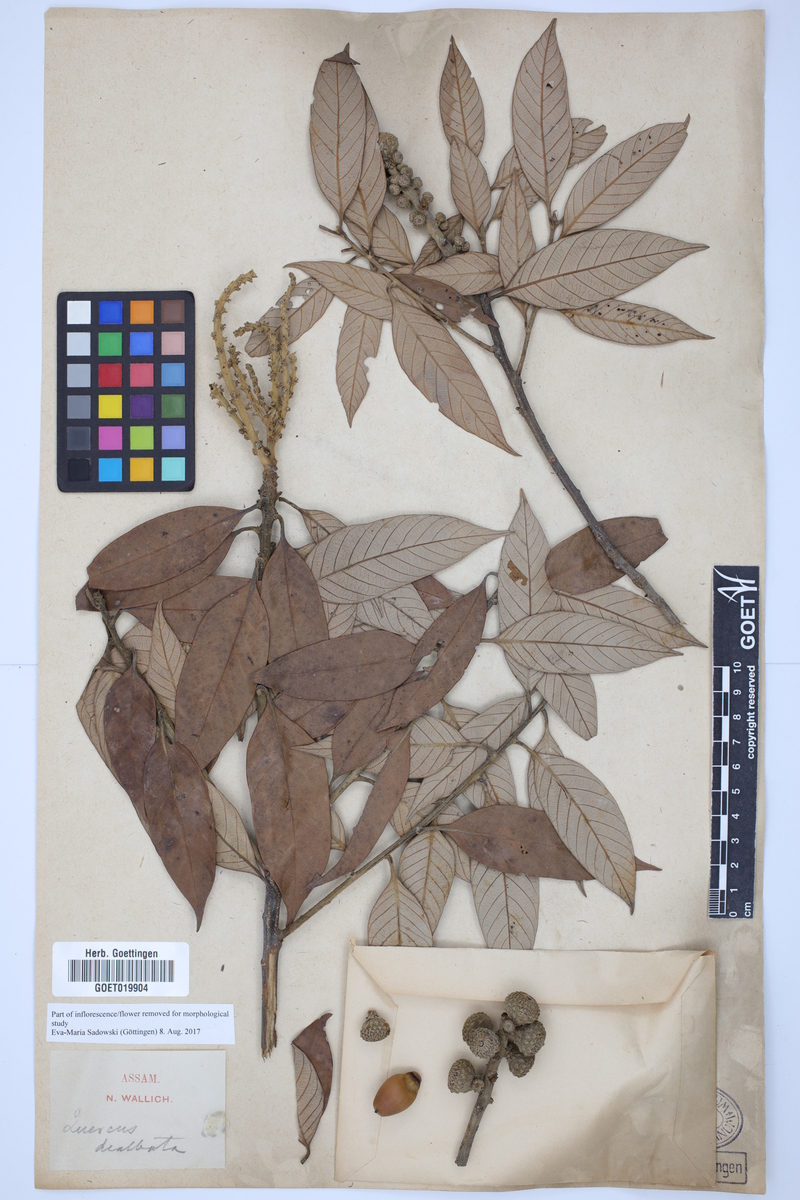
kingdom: Plantae
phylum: Tracheophyta
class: Magnoliopsida
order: Fagales
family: Fagaceae
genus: Lithocarpus
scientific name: Lithocarpus dealbatus
